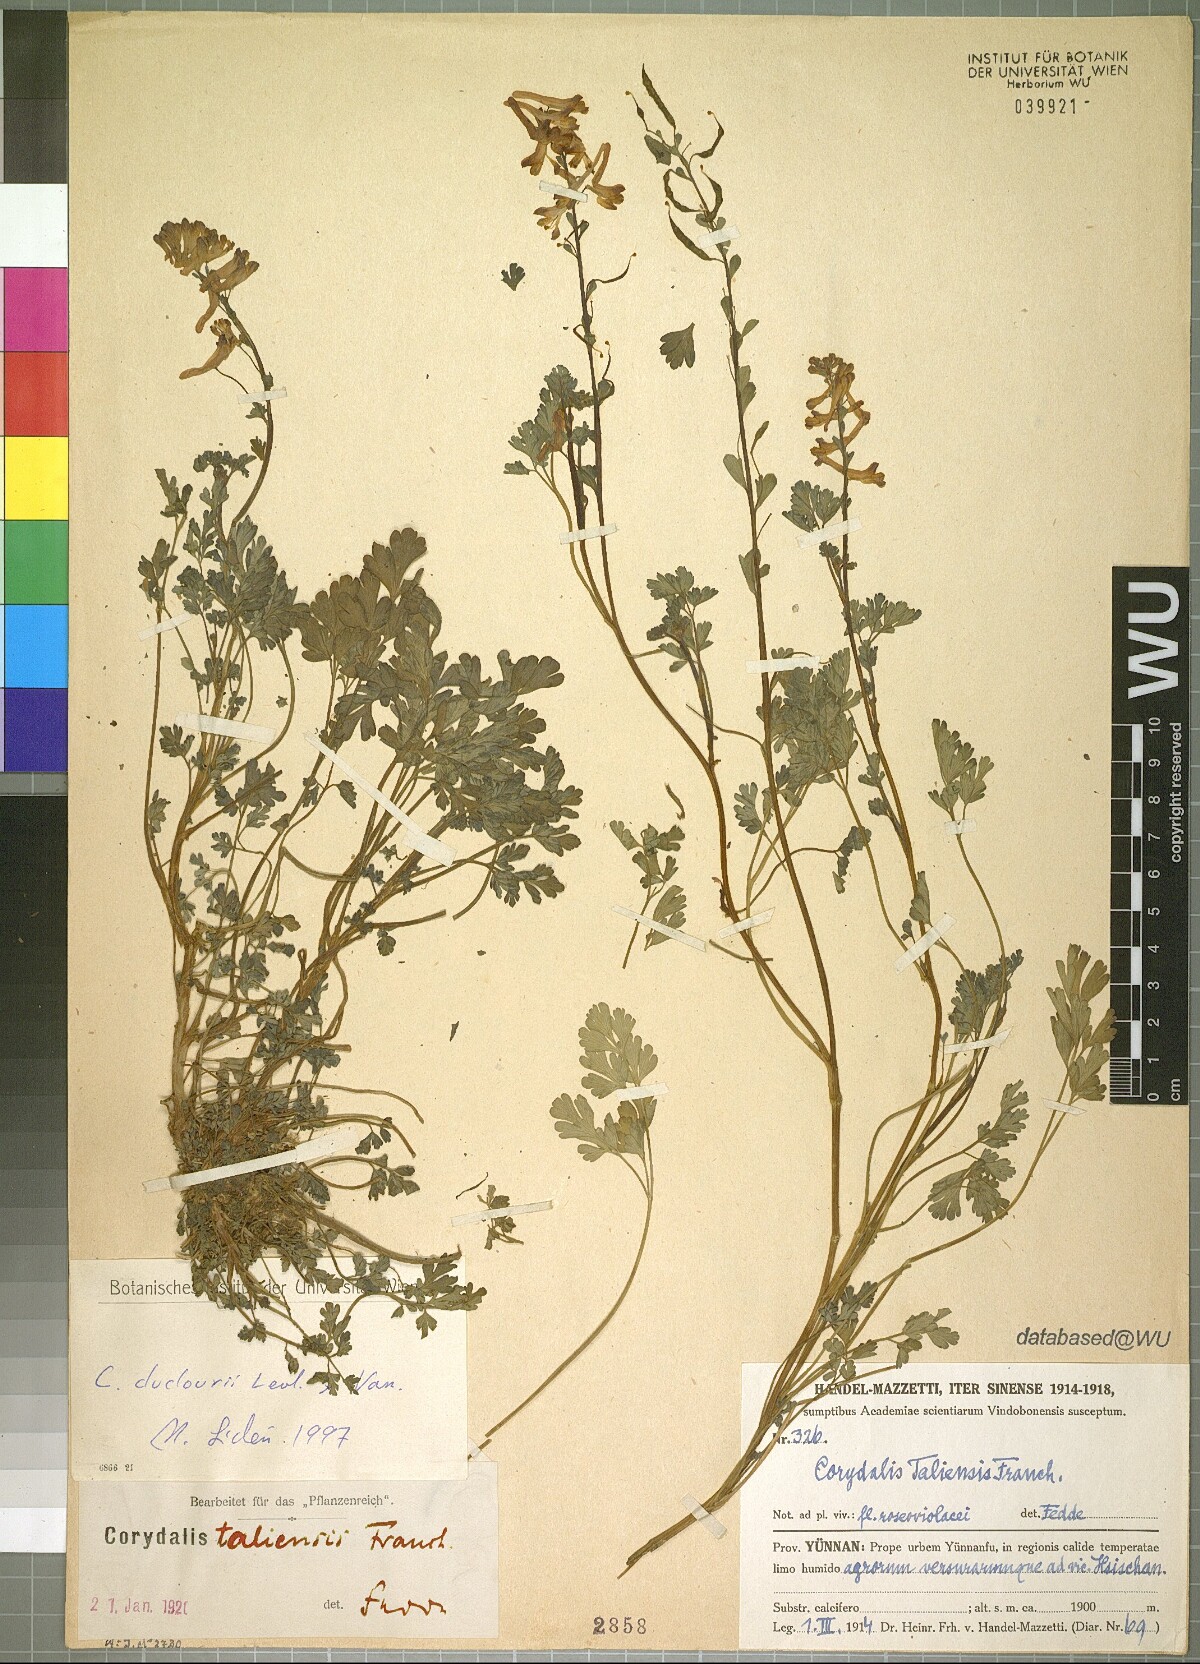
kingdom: Plantae
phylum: Tracheophyta
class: Magnoliopsida
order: Ranunculales
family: Papaveraceae
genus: Corydalis
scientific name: Corydalis duclouxii
